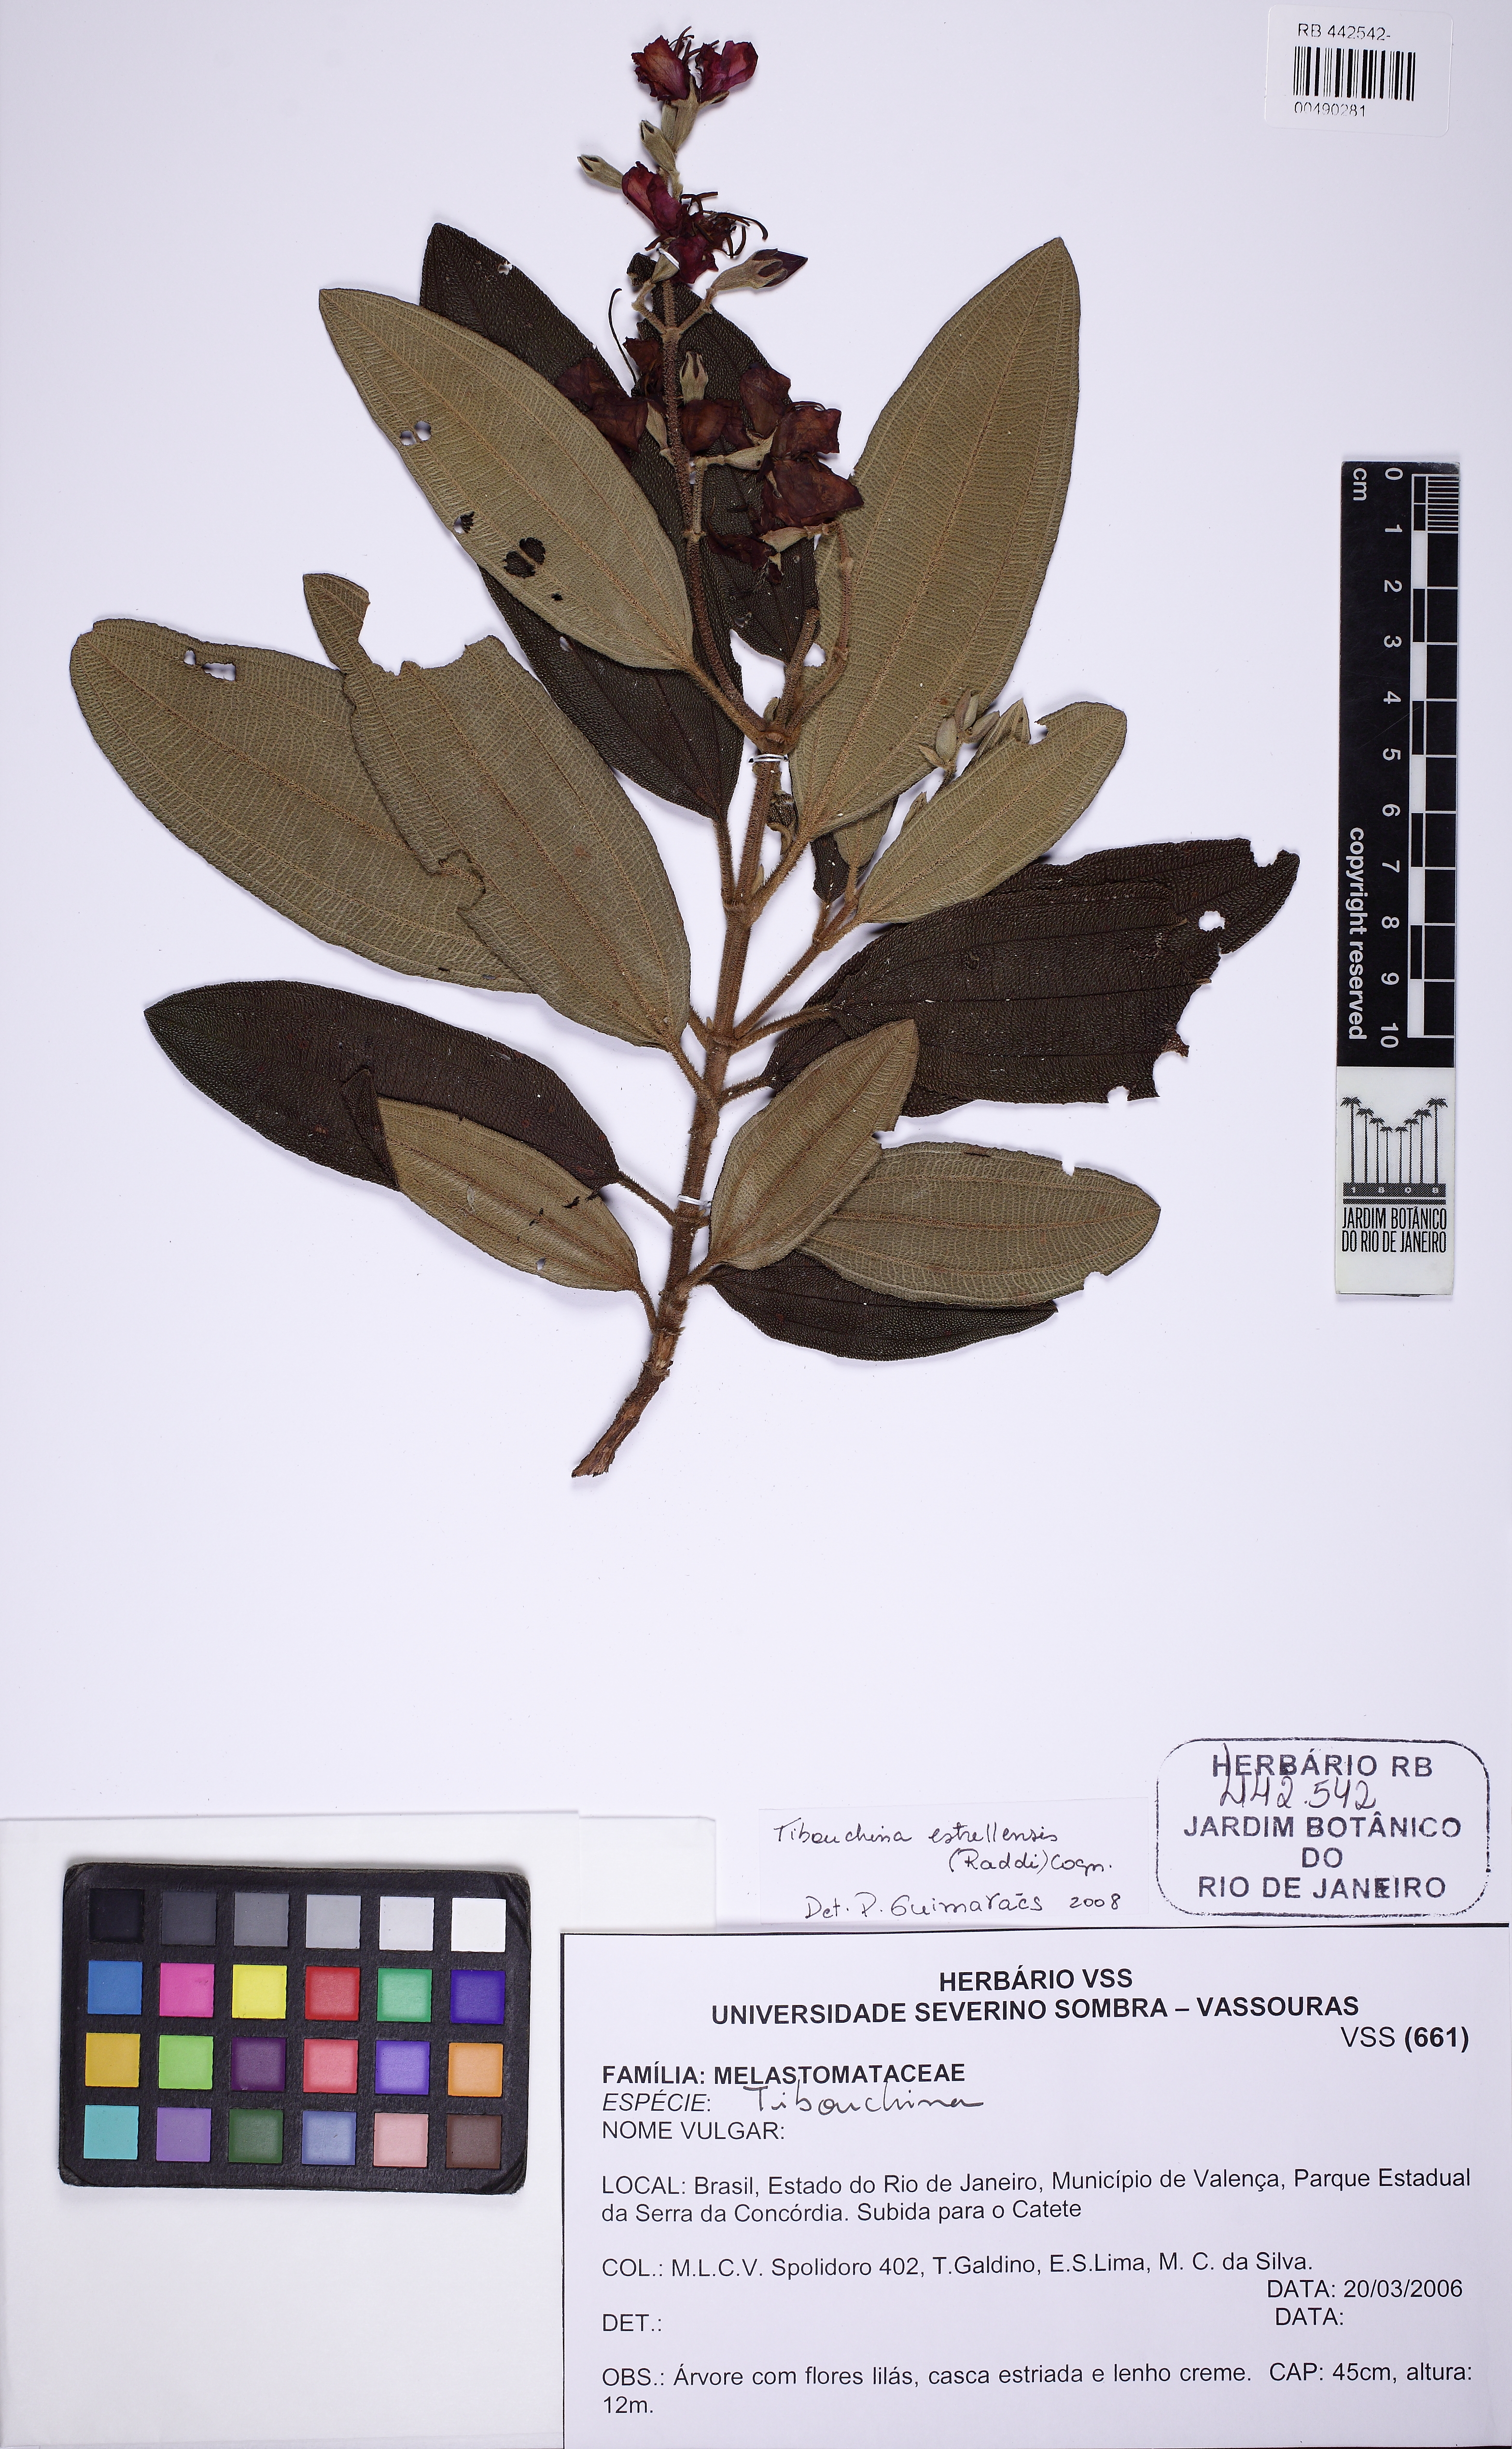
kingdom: Plantae
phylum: Tracheophyta
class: Magnoliopsida
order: Myrtales
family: Melastomataceae
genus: Pleroma
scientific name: Pleroma estrellense
